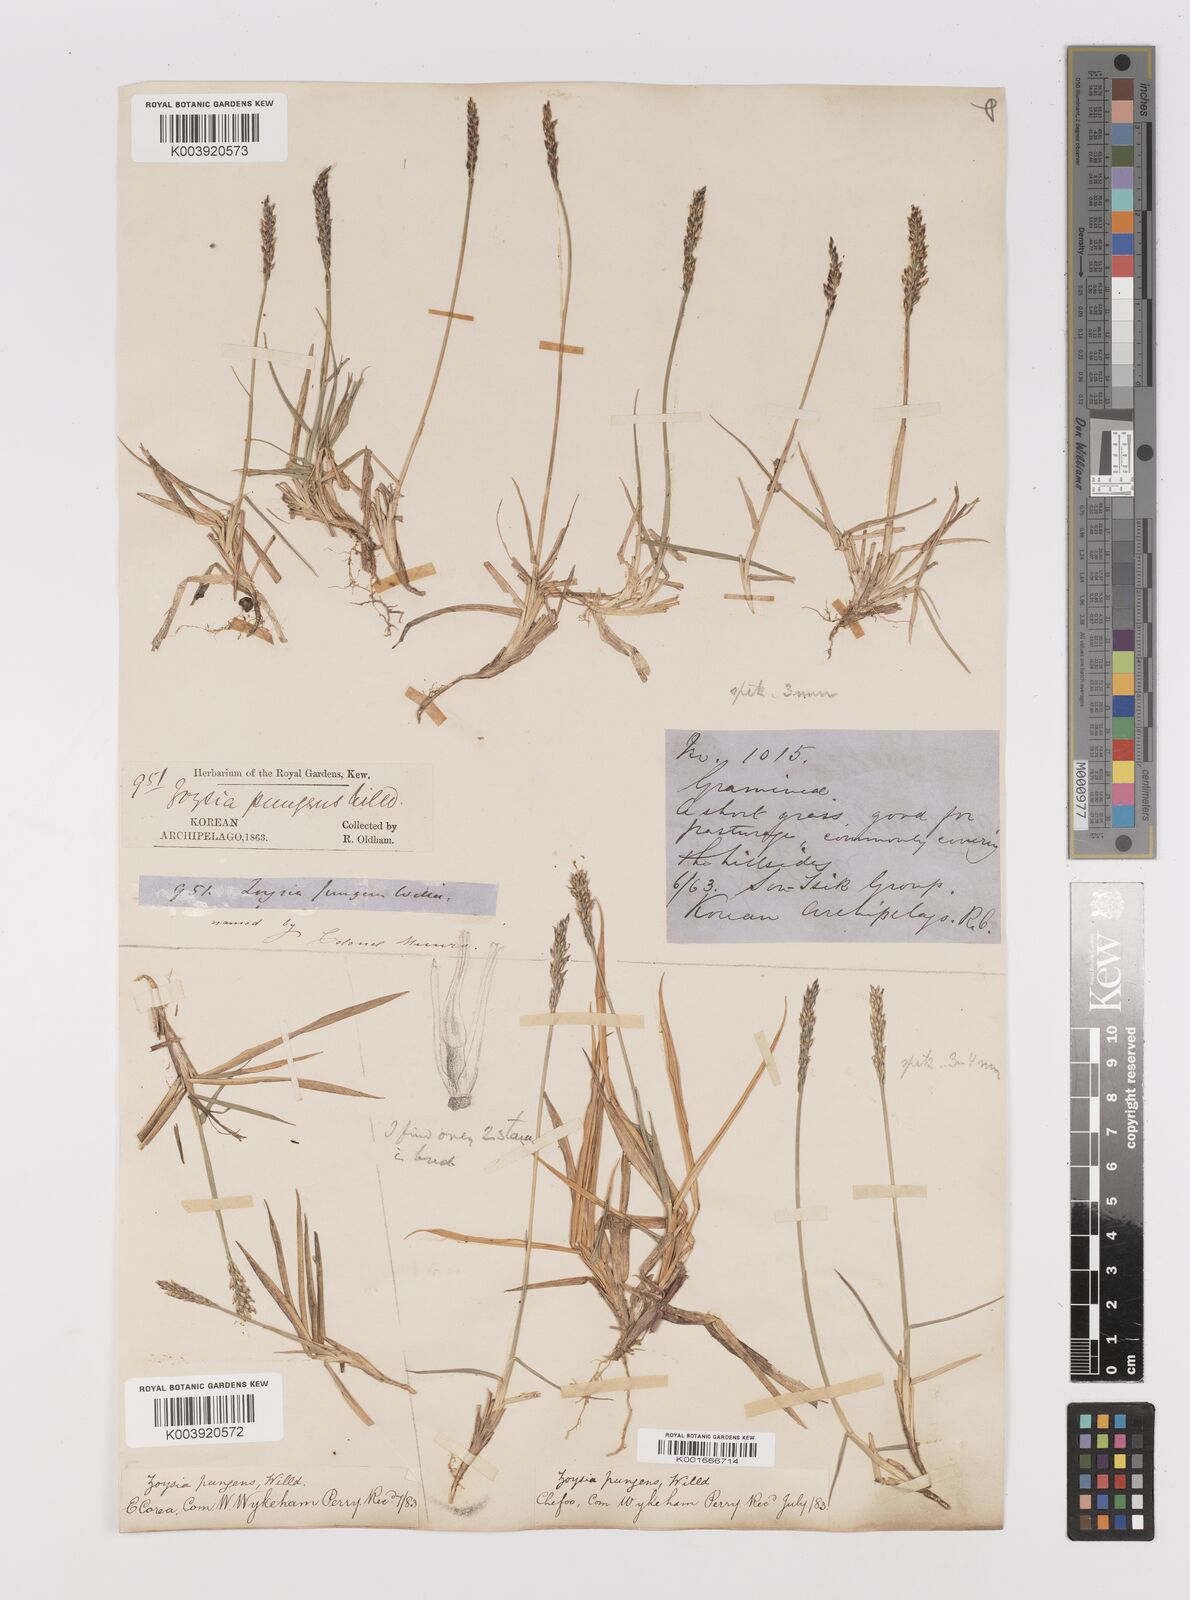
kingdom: Plantae
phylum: Tracheophyta
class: Liliopsida
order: Poales
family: Poaceae
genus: Zoysia
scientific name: Zoysia japonica
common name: Korean lawngrass
